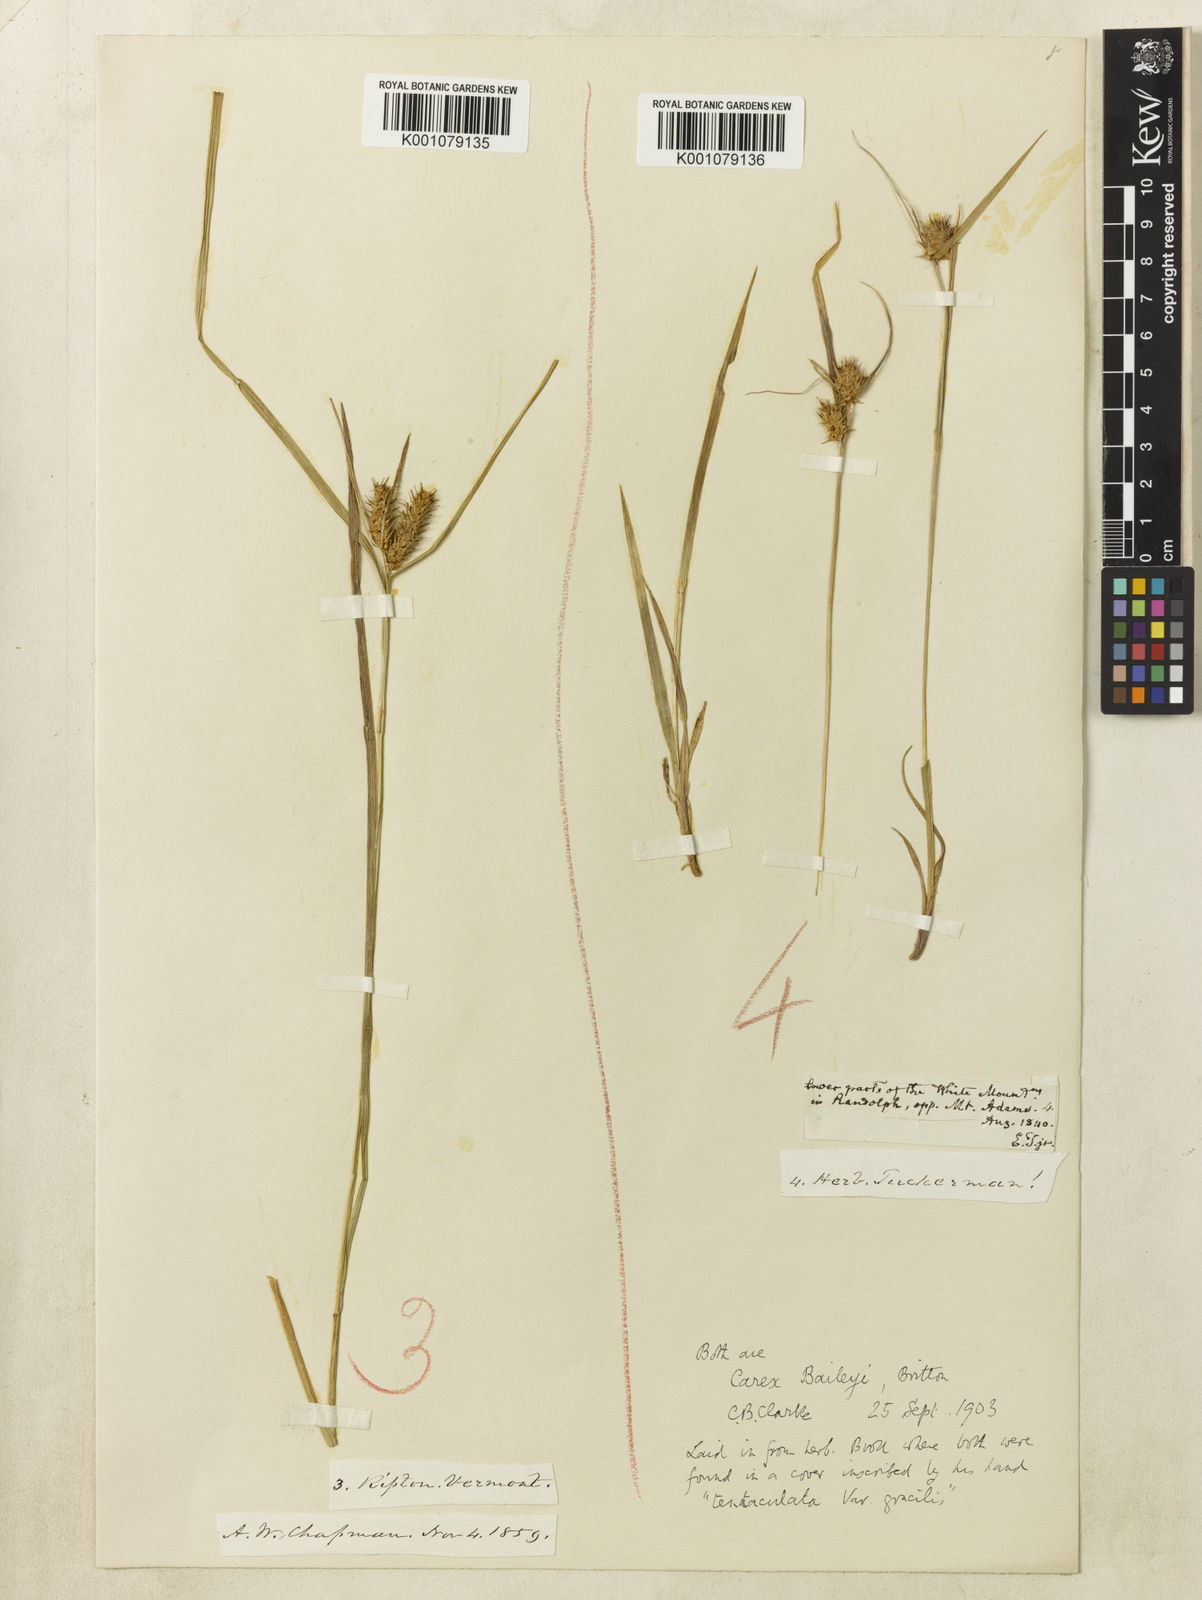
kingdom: Plantae
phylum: Tracheophyta
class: Liliopsida
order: Poales
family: Cyperaceae
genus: Carex
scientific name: Carex baileyi
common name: Bailey's sedge
